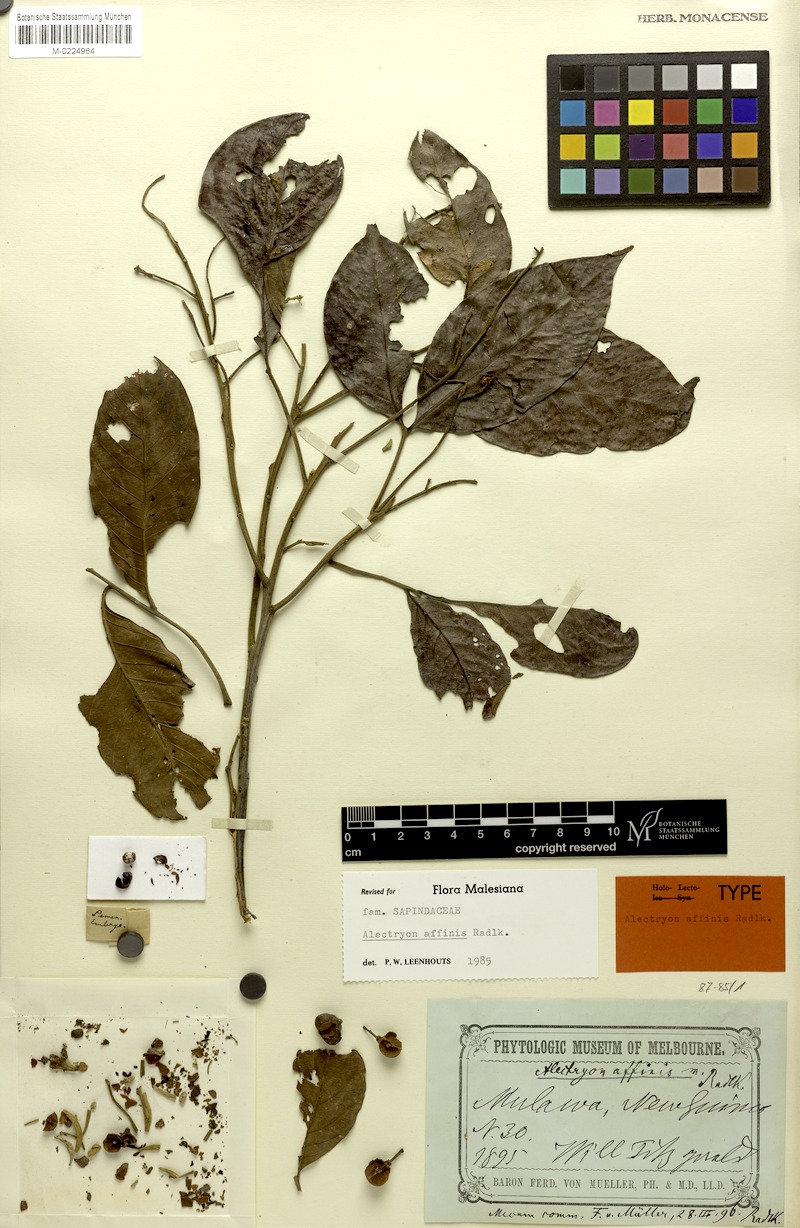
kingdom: Plantae
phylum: Tracheophyta
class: Magnoliopsida
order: Sapindales
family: Sapindaceae
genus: Alectryon
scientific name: Alectryon affinis
